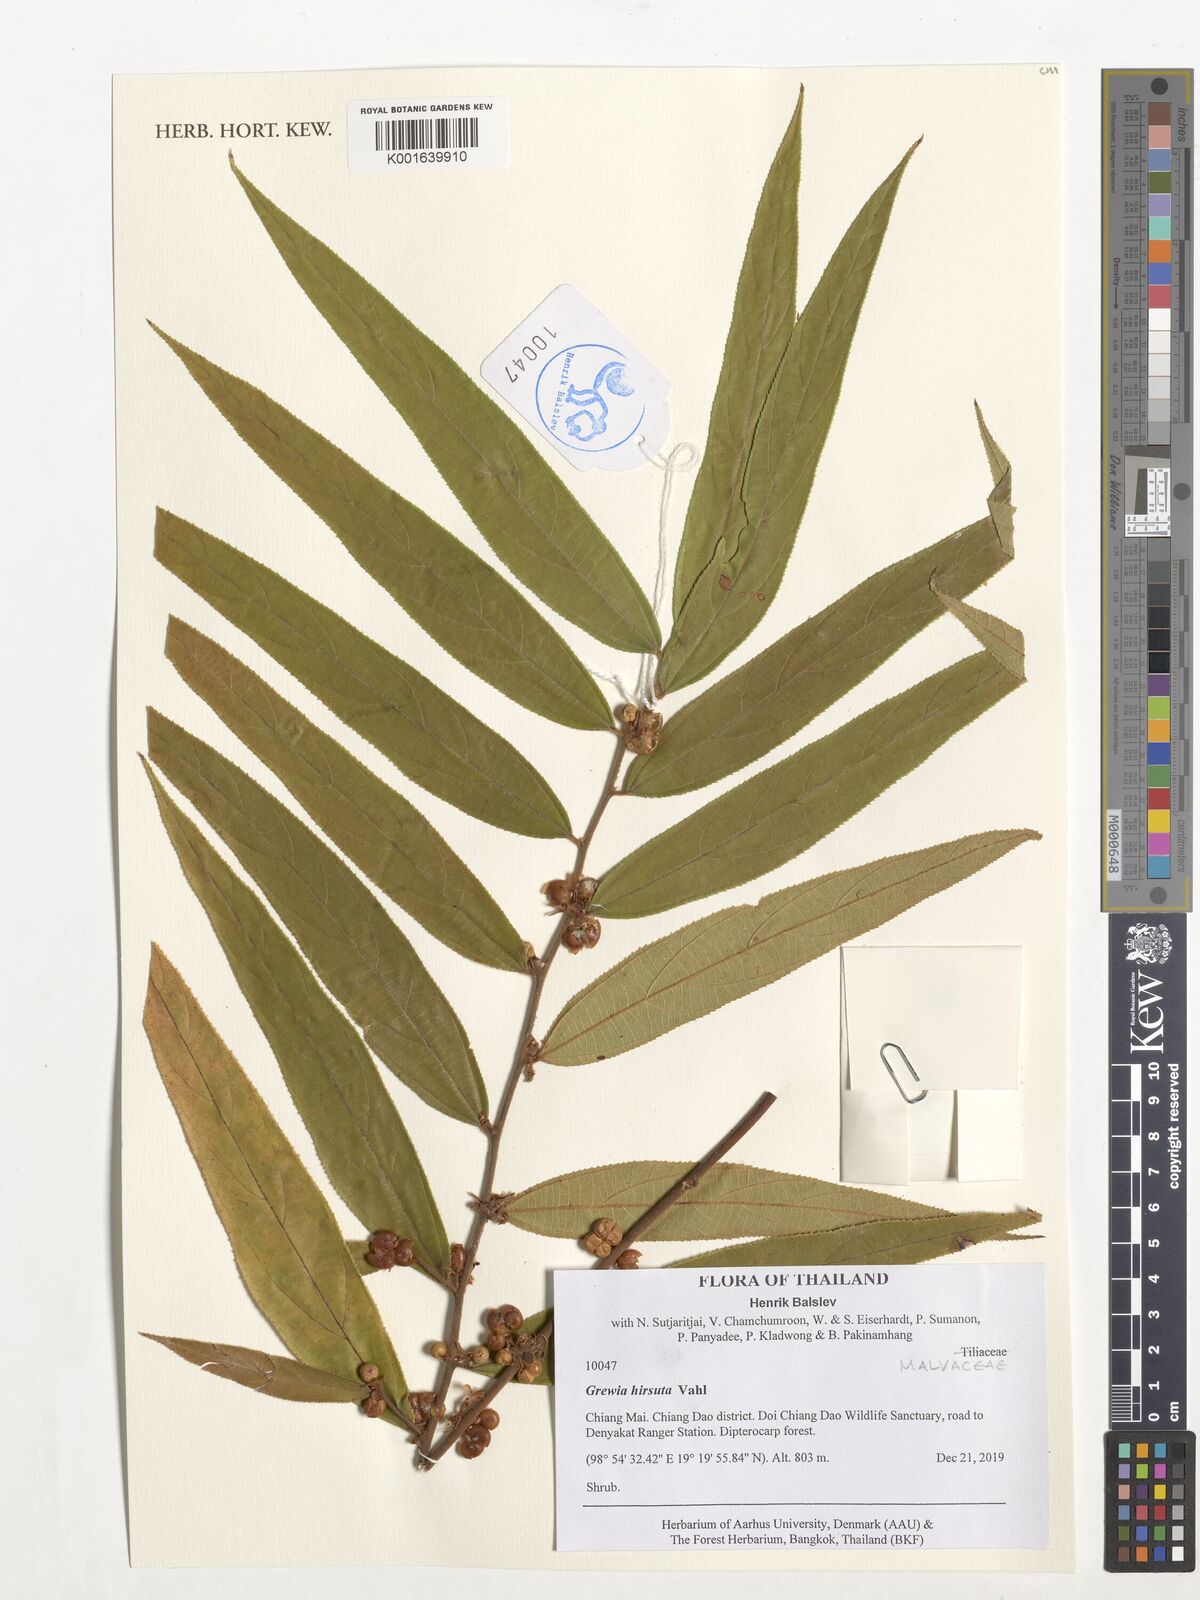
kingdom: Plantae
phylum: Tracheophyta
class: Magnoliopsida
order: Malvales
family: Malvaceae
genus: Grewia
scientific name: Grewia hirsuta
